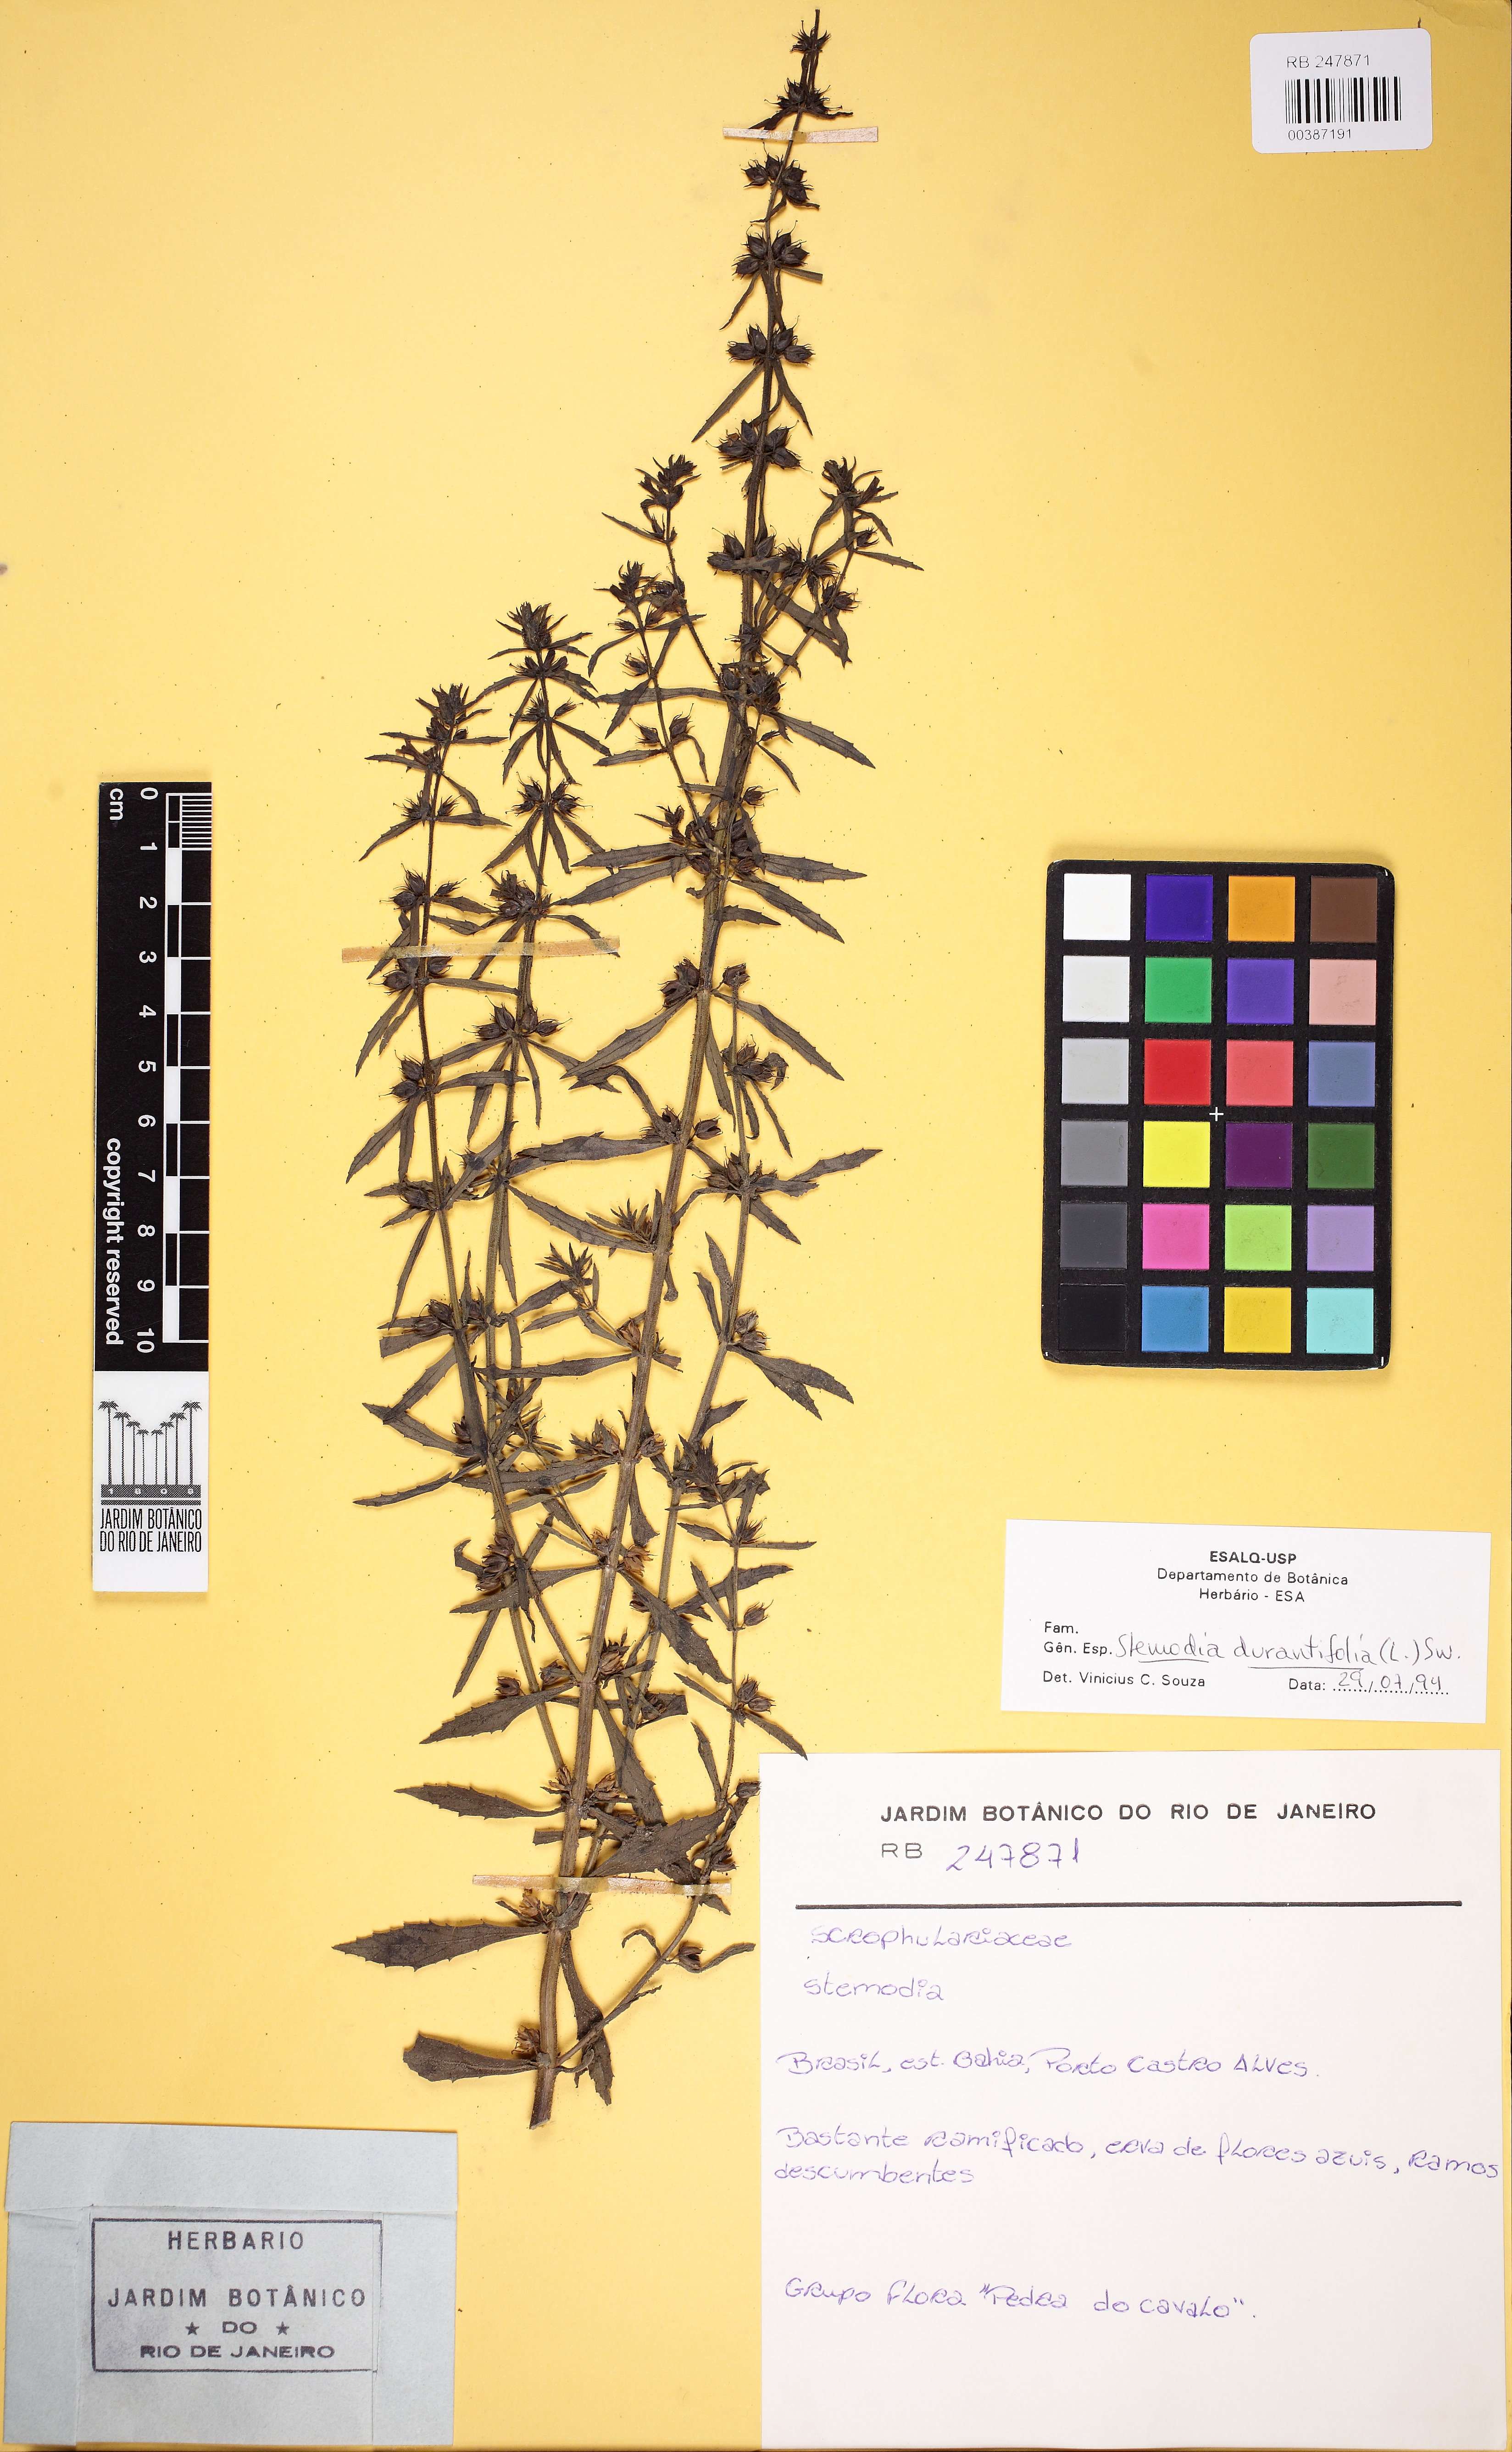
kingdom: Plantae
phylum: Tracheophyta
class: Magnoliopsida
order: Lamiales
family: Plantaginaceae
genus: Stemodia
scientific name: Stemodia durantifolia
